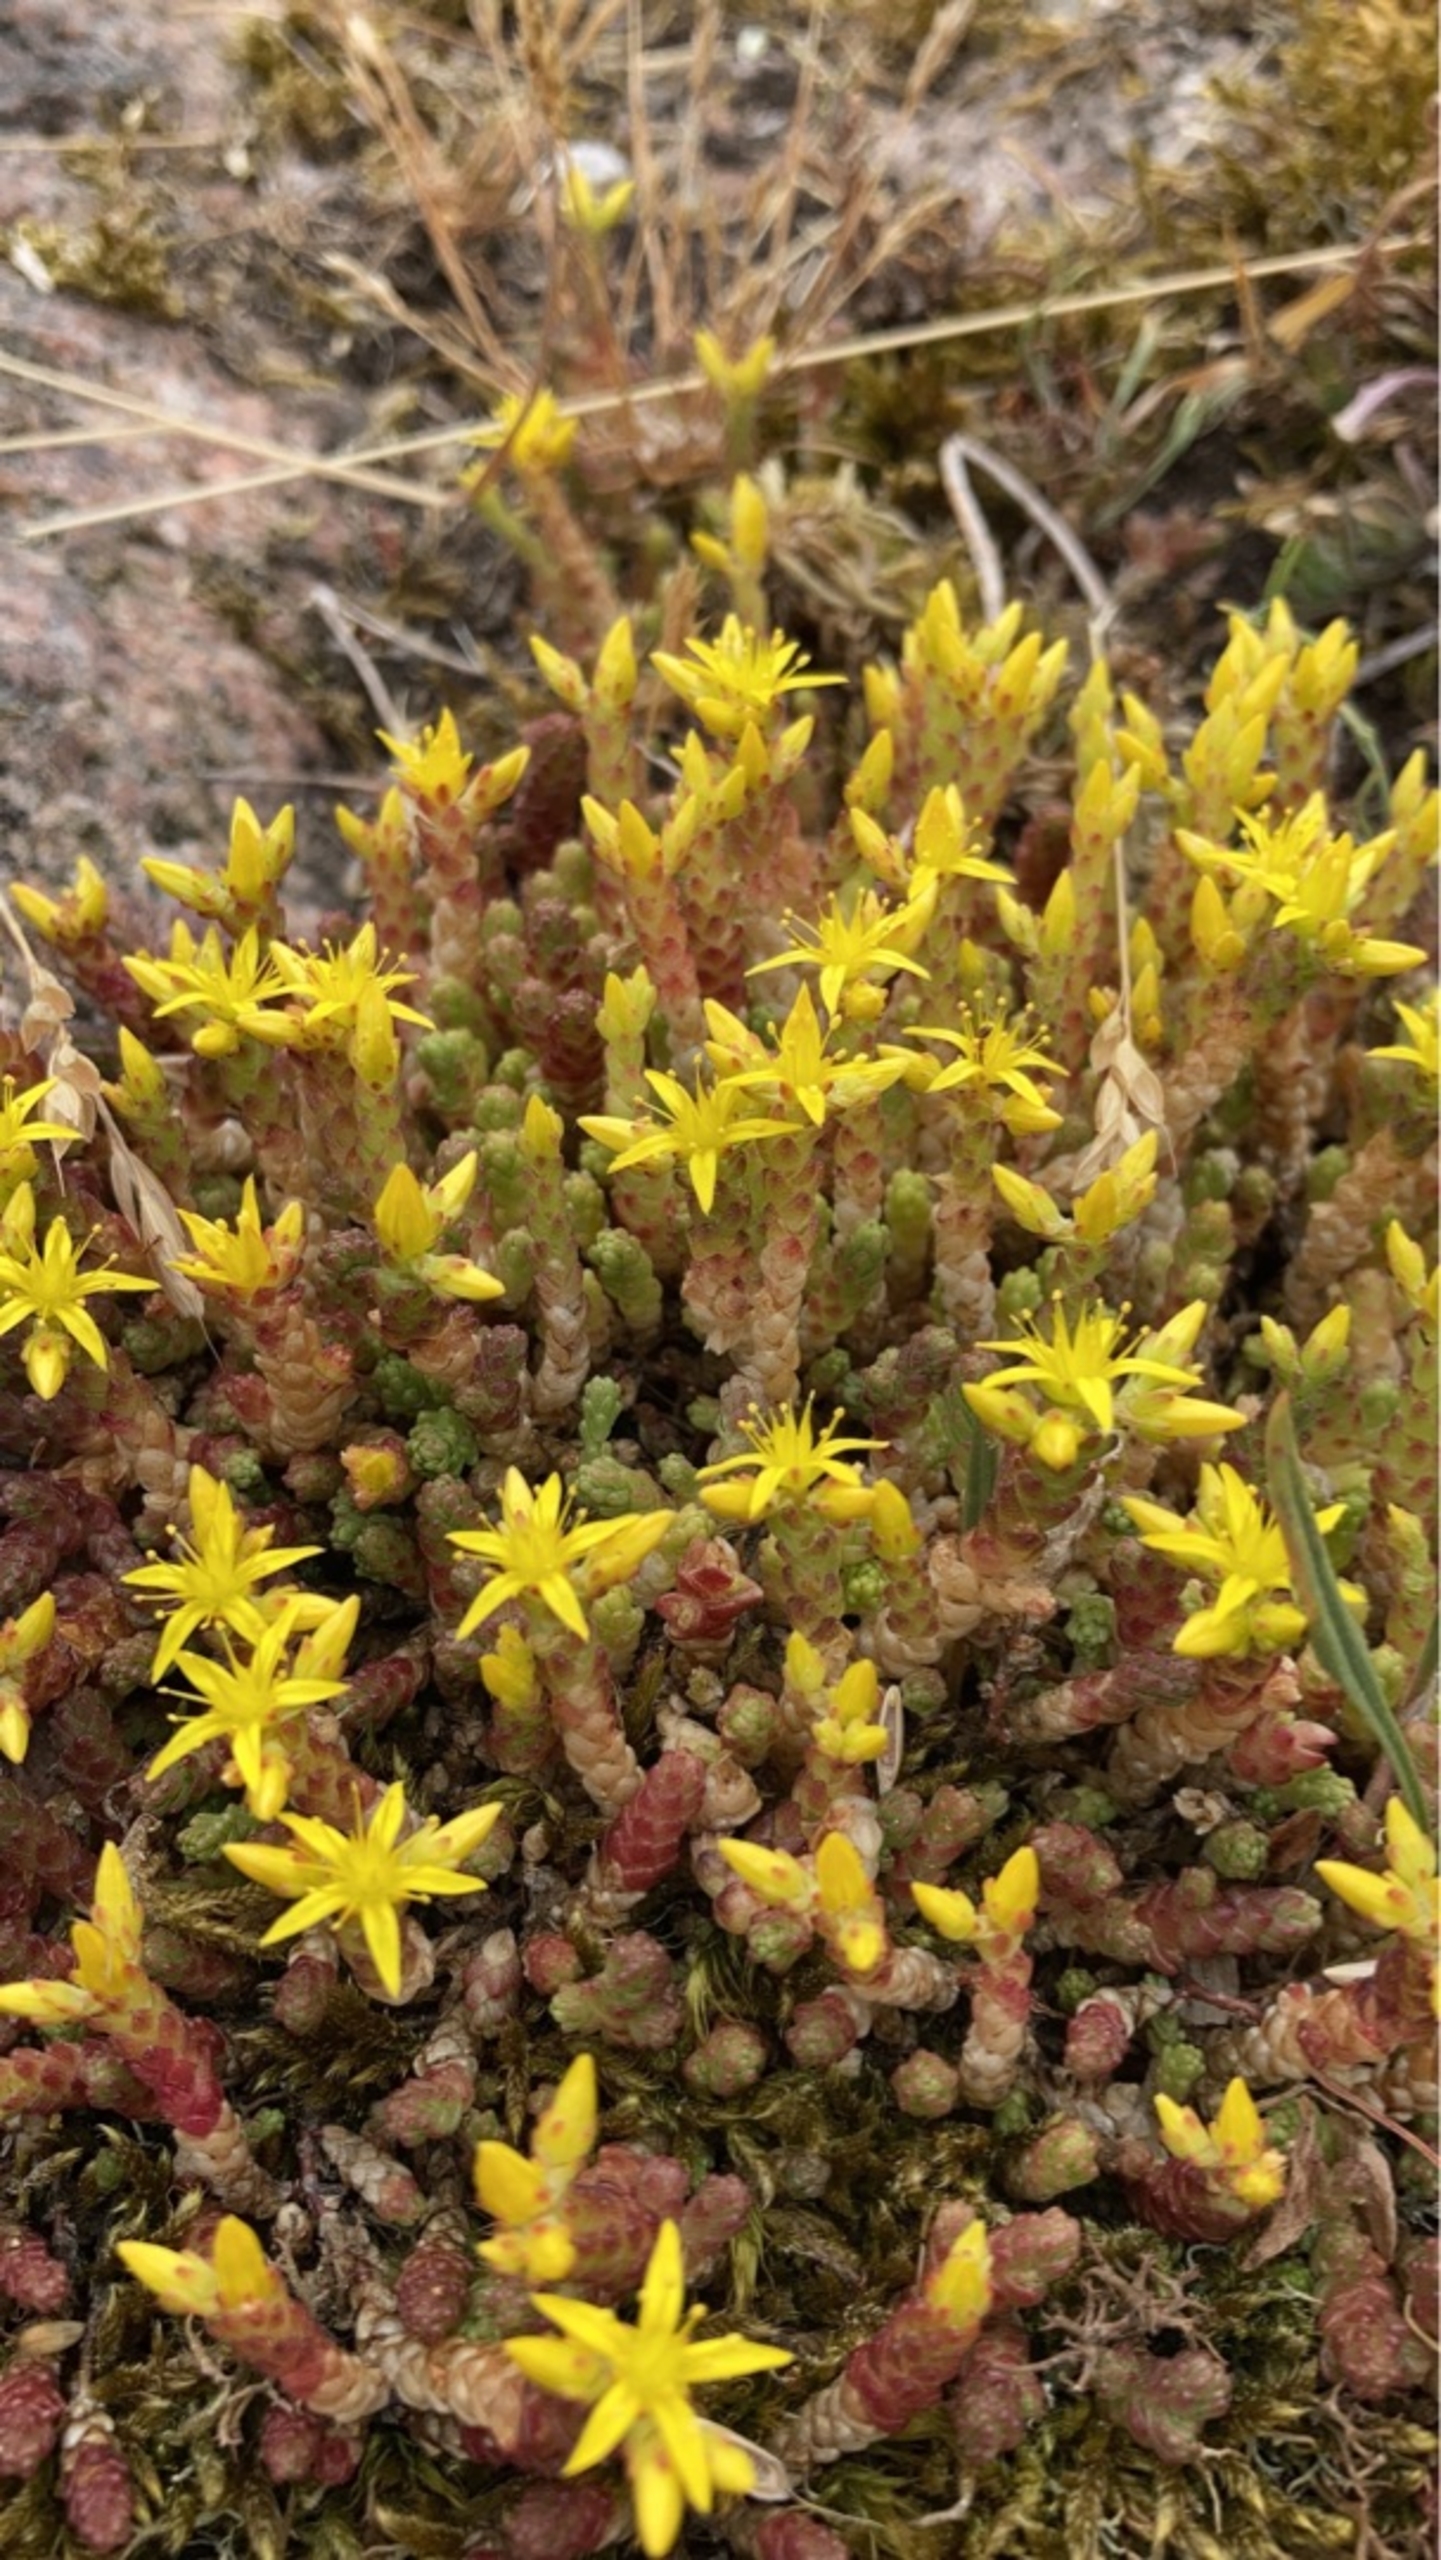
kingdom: Plantae
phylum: Tracheophyta
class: Magnoliopsida
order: Saxifragales
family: Crassulaceae
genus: Sedum
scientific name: Sedum acre
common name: Bidende stenurt
